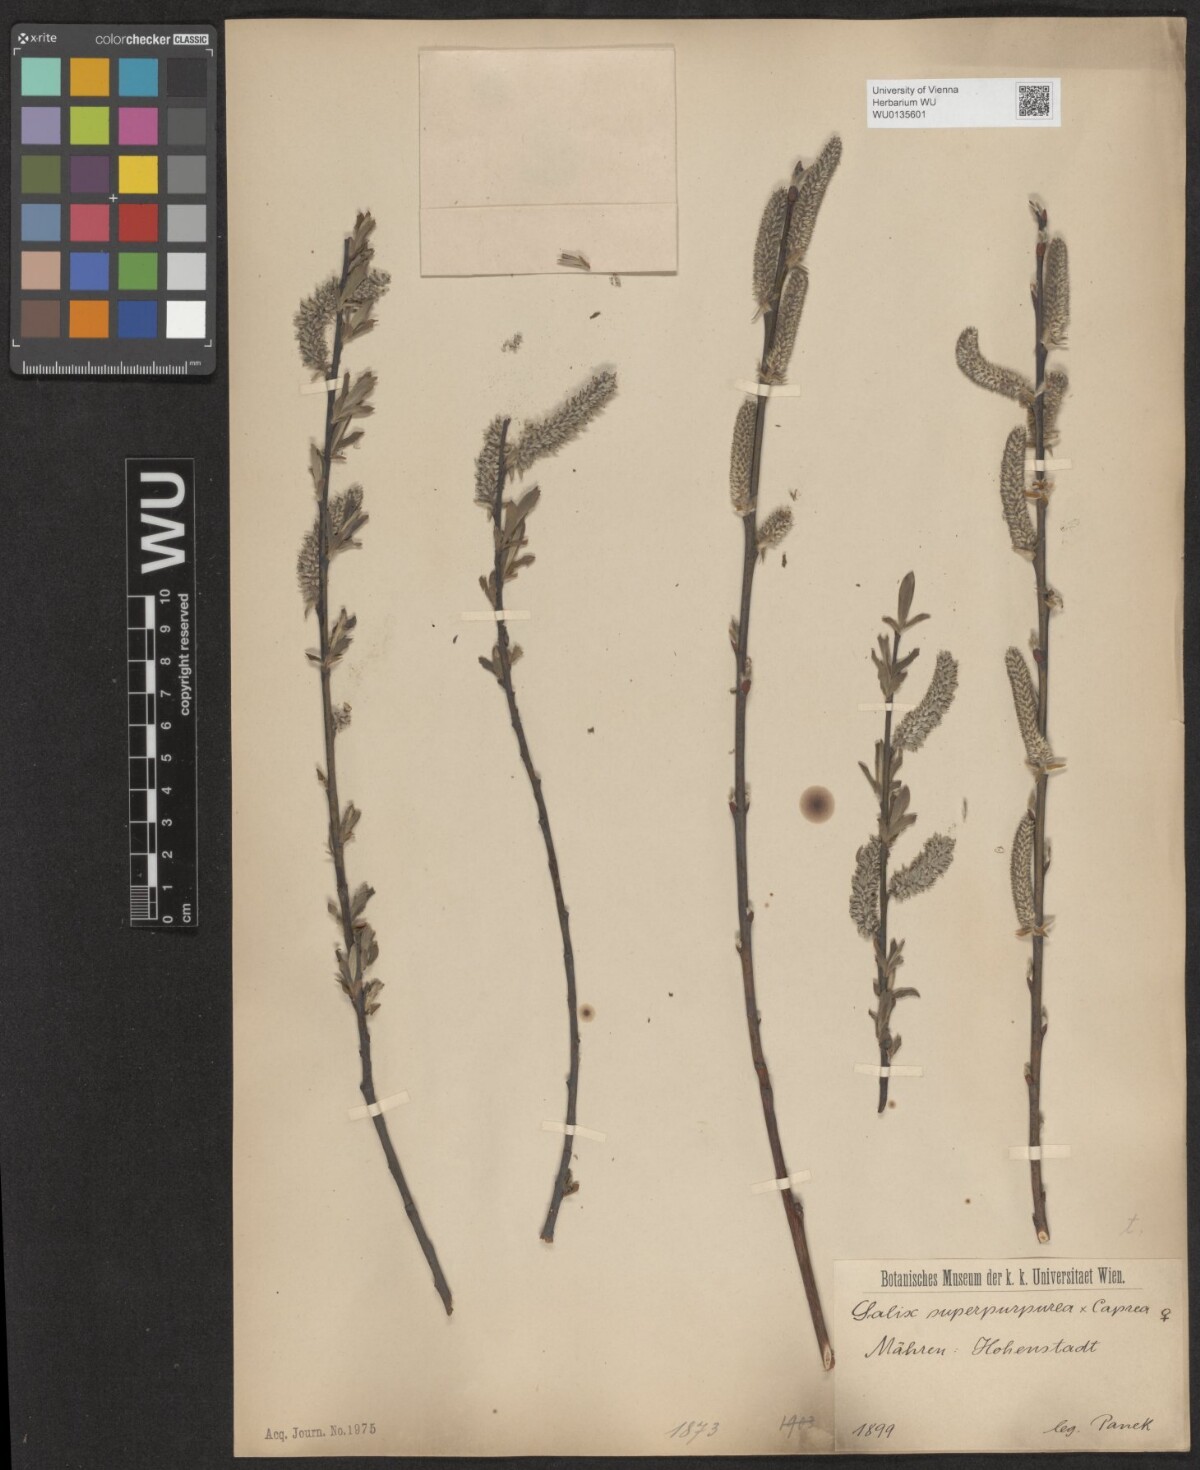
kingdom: Plantae
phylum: Tracheophyta
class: Magnoliopsida
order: Malpighiales
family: Salicaceae
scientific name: Salicaceae
